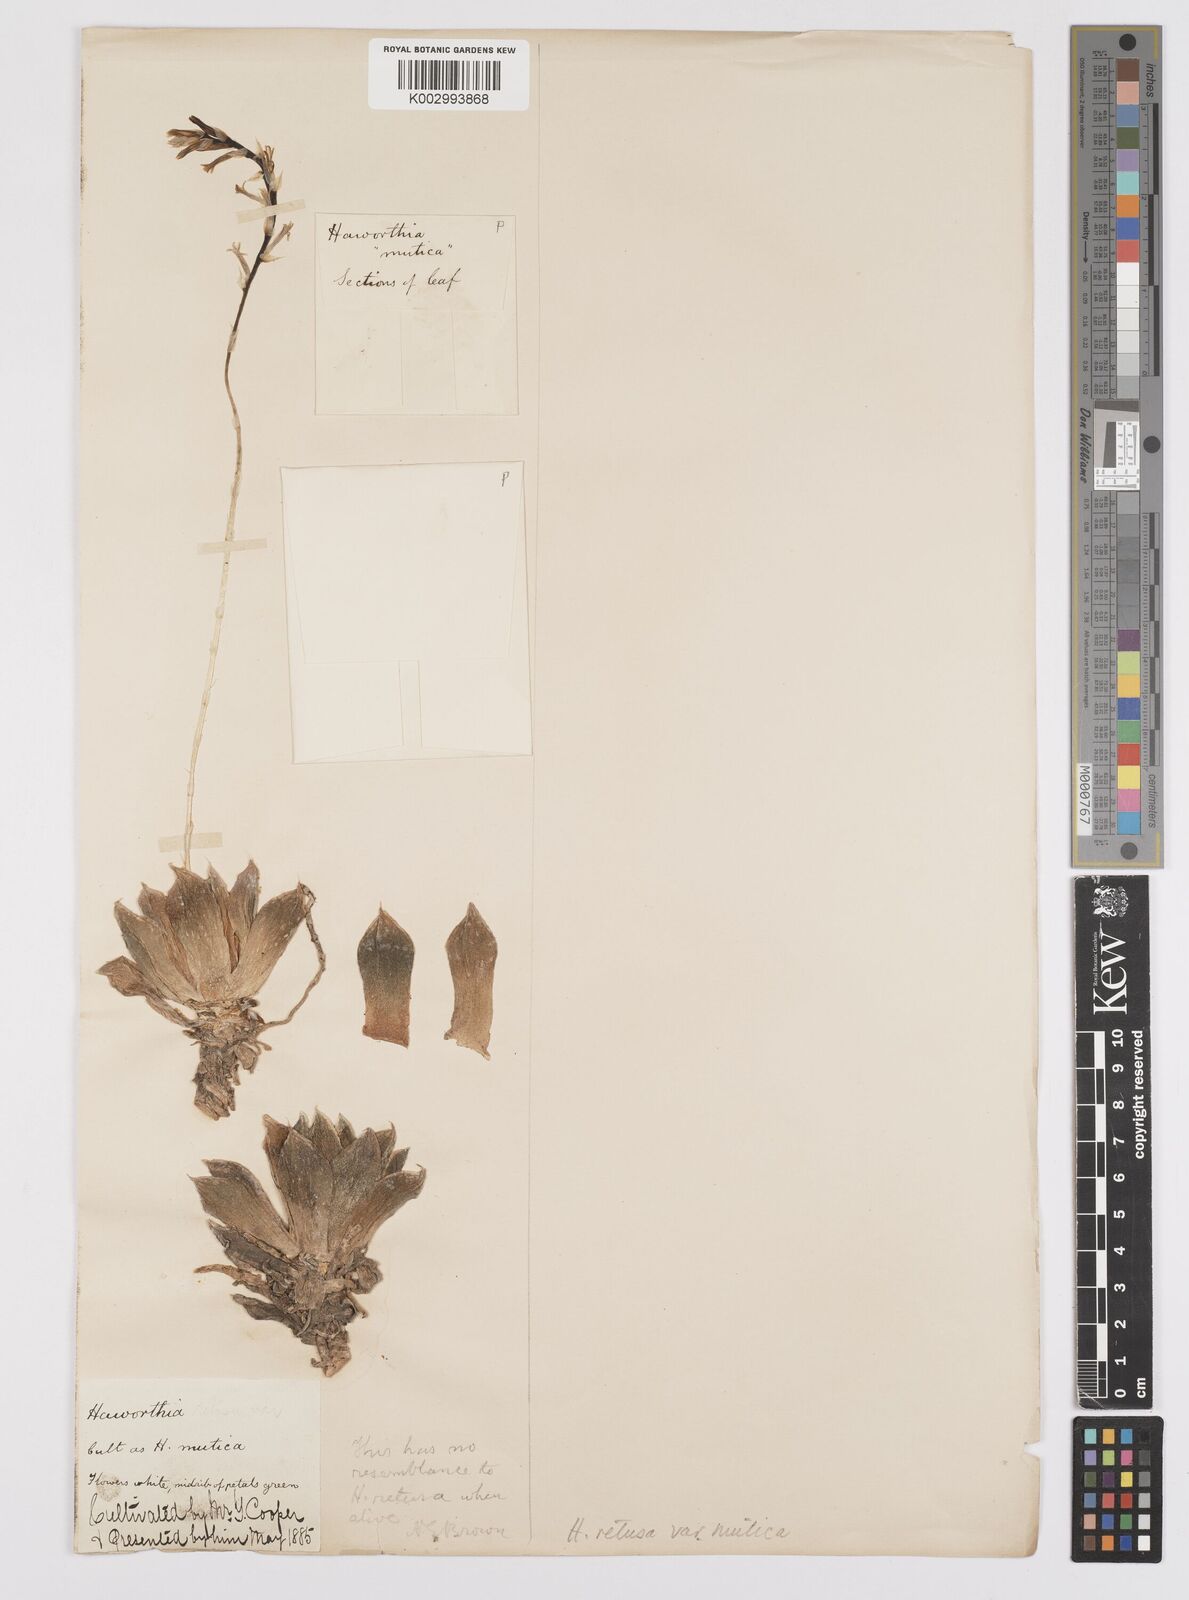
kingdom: Plantae
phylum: Tracheophyta
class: Liliopsida
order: Asparagales
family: Asphodelaceae
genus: Haworthia
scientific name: Haworthia retusa
